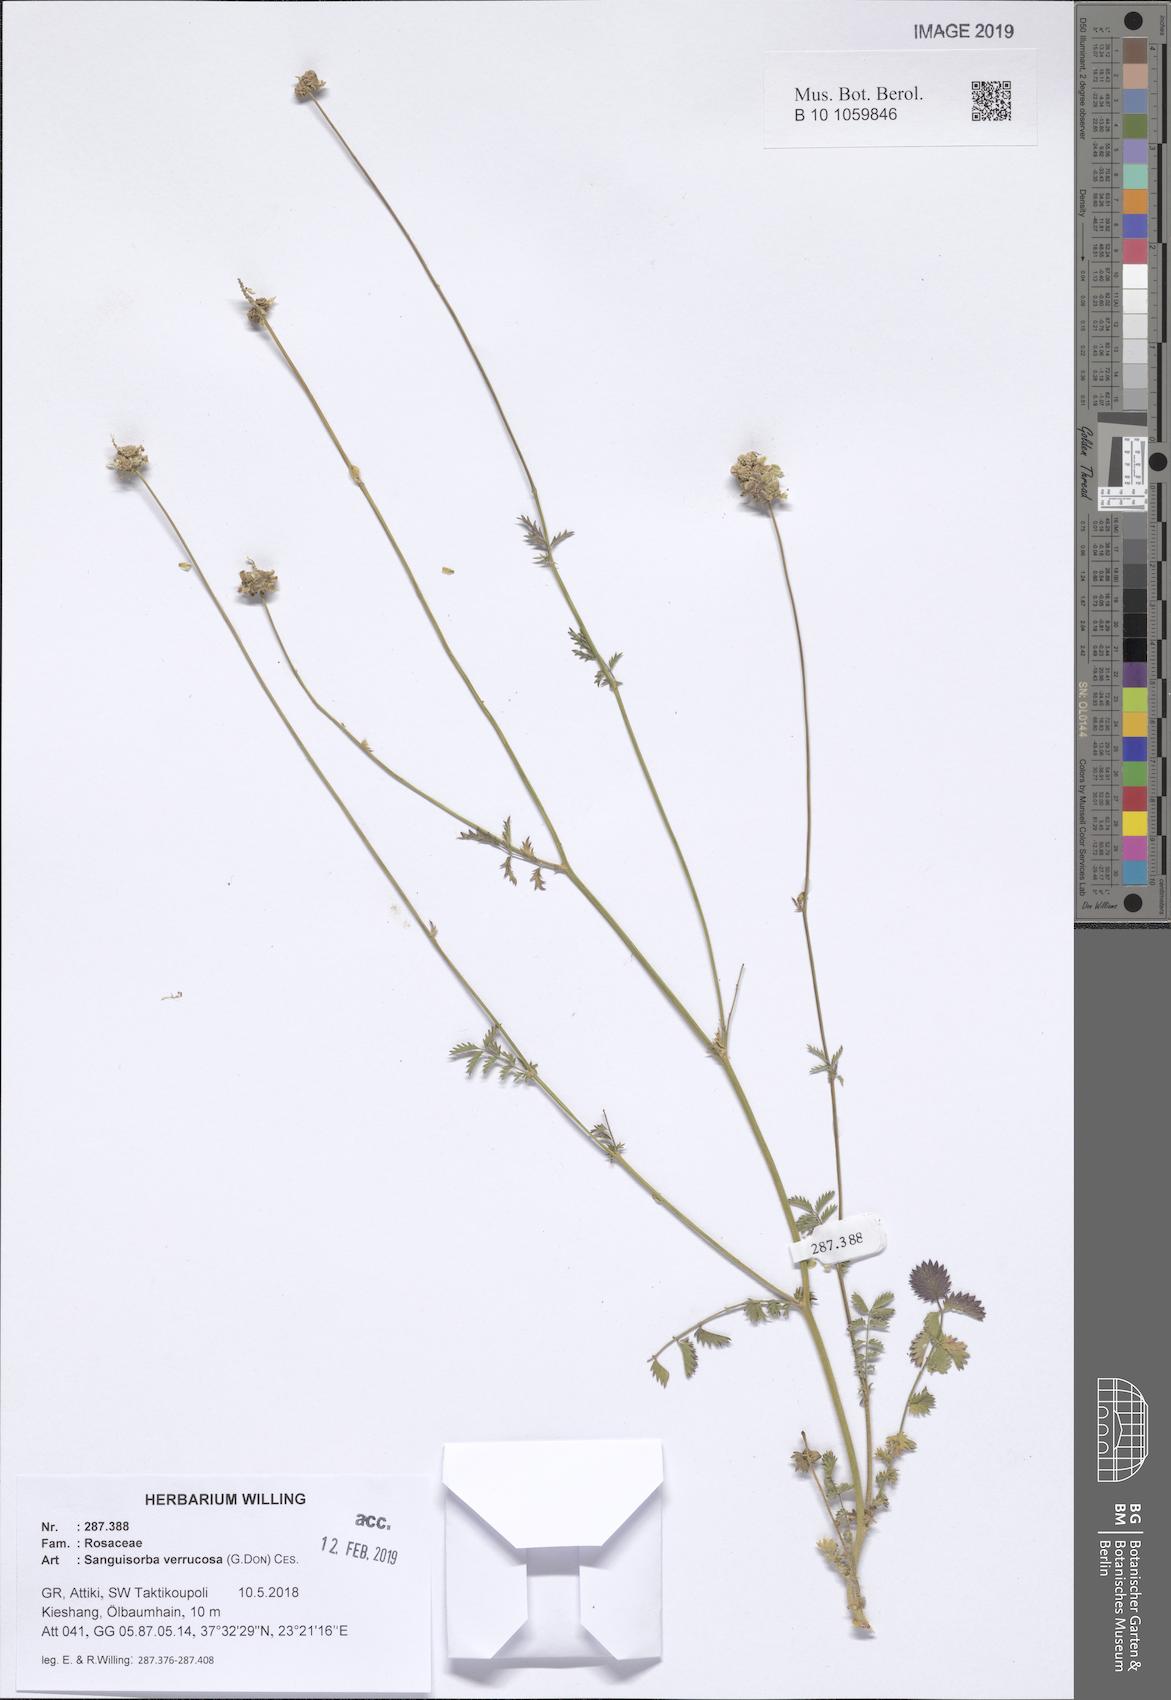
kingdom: Plantae
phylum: Tracheophyta
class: Magnoliopsida
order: Rosales
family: Rosaceae
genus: Poterium
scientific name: Poterium verrucosum
